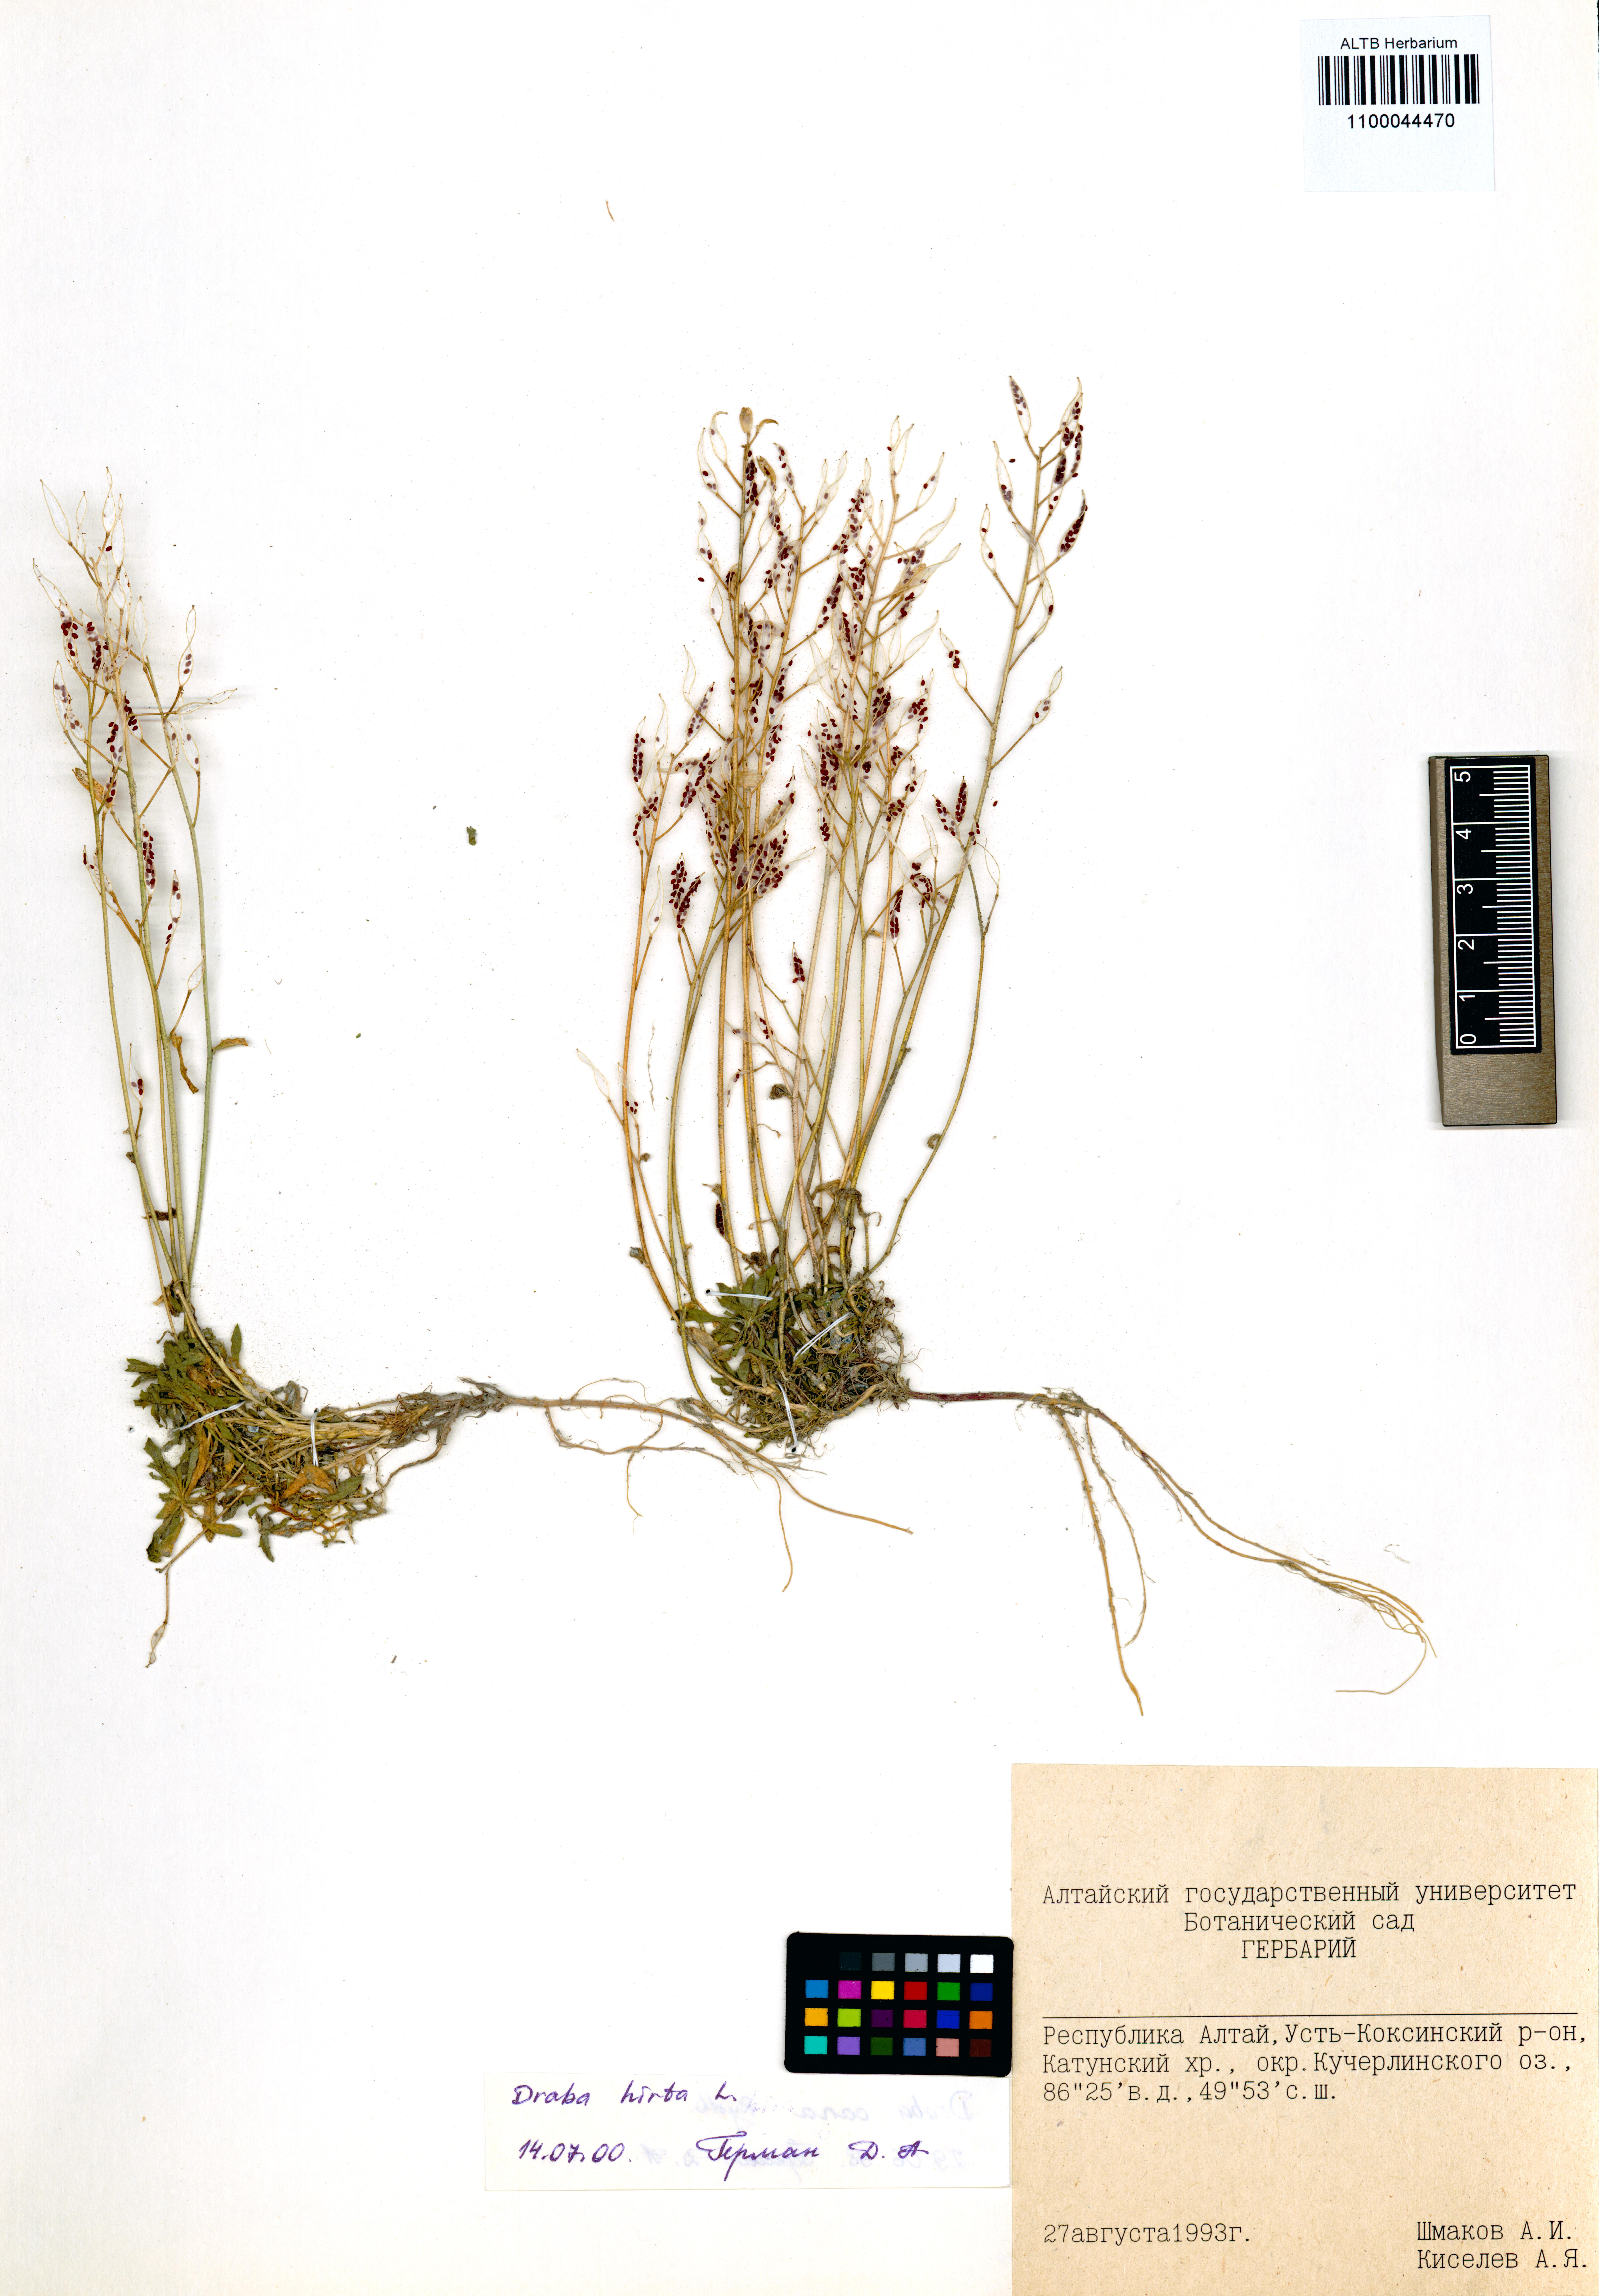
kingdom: Plantae
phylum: Tracheophyta
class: Magnoliopsida
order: Brassicales
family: Brassicaceae
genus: Draba
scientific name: Draba glabella
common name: Glaucous draba
